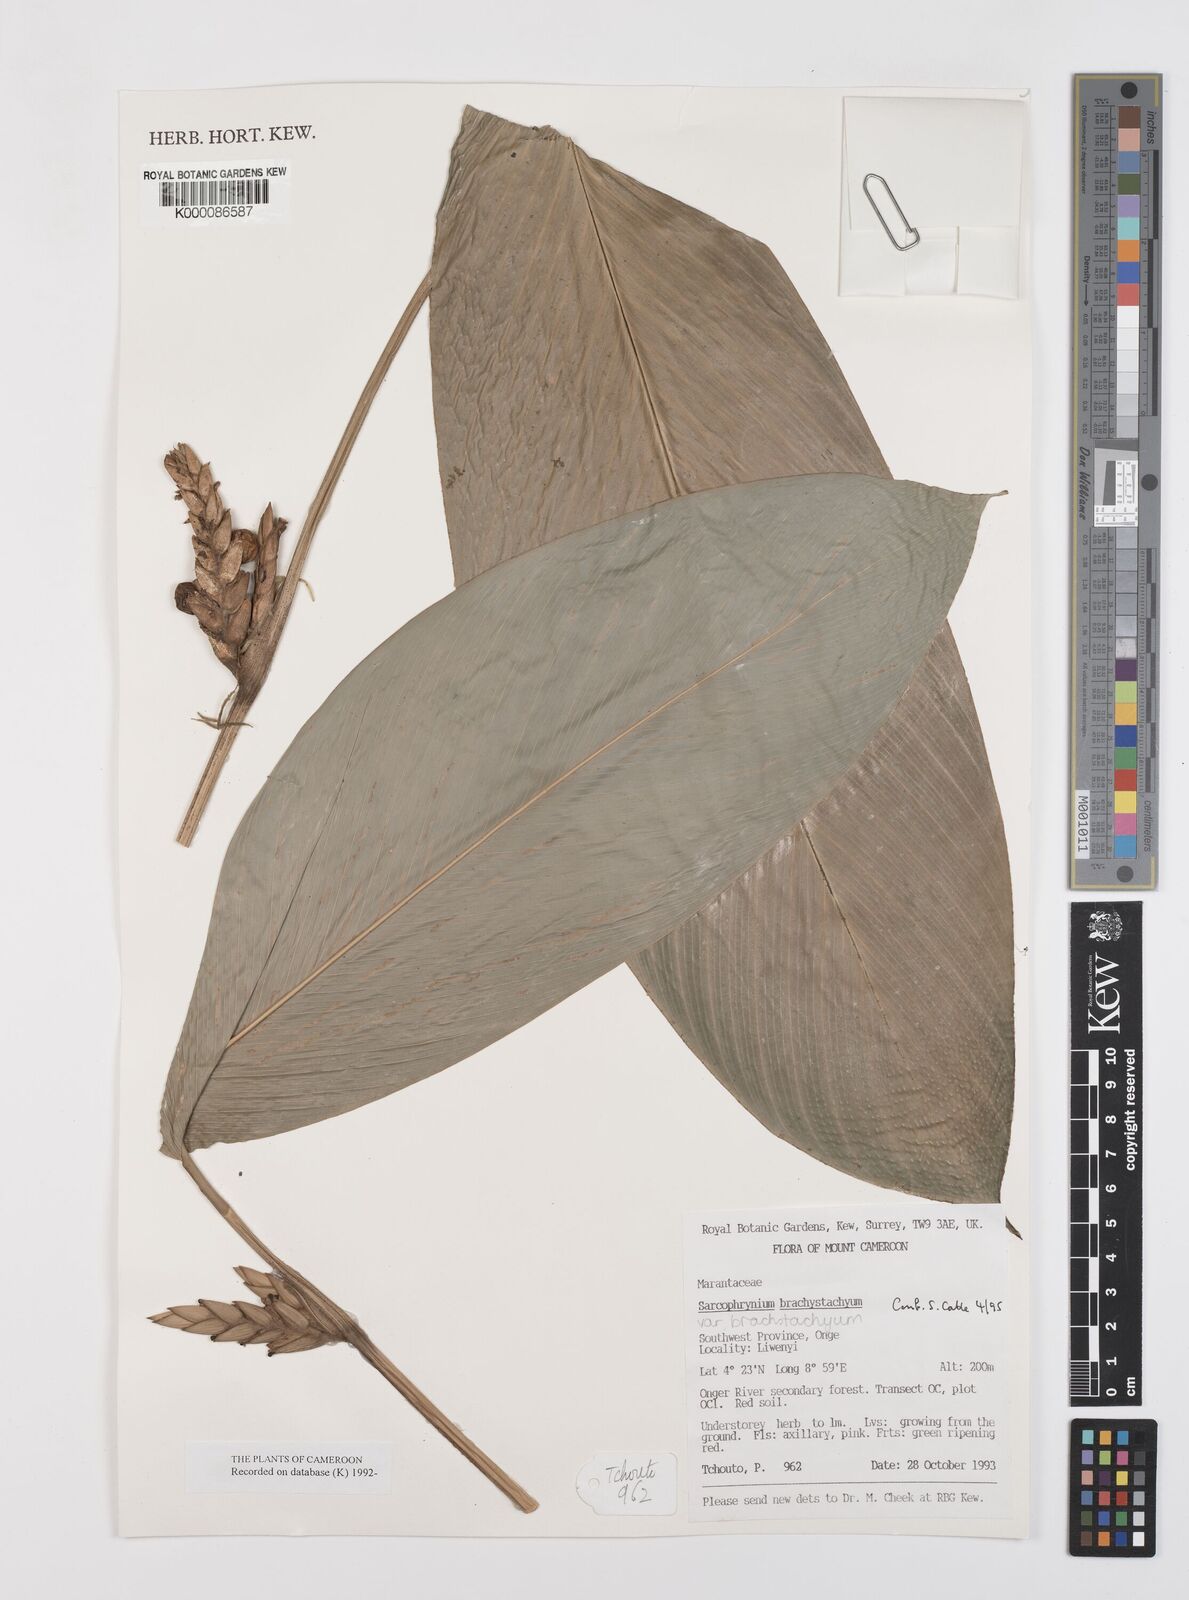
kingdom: Plantae
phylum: Tracheophyta
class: Liliopsida
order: Zingiberales
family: Marantaceae
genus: Sarcophrynium
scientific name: Sarcophrynium
